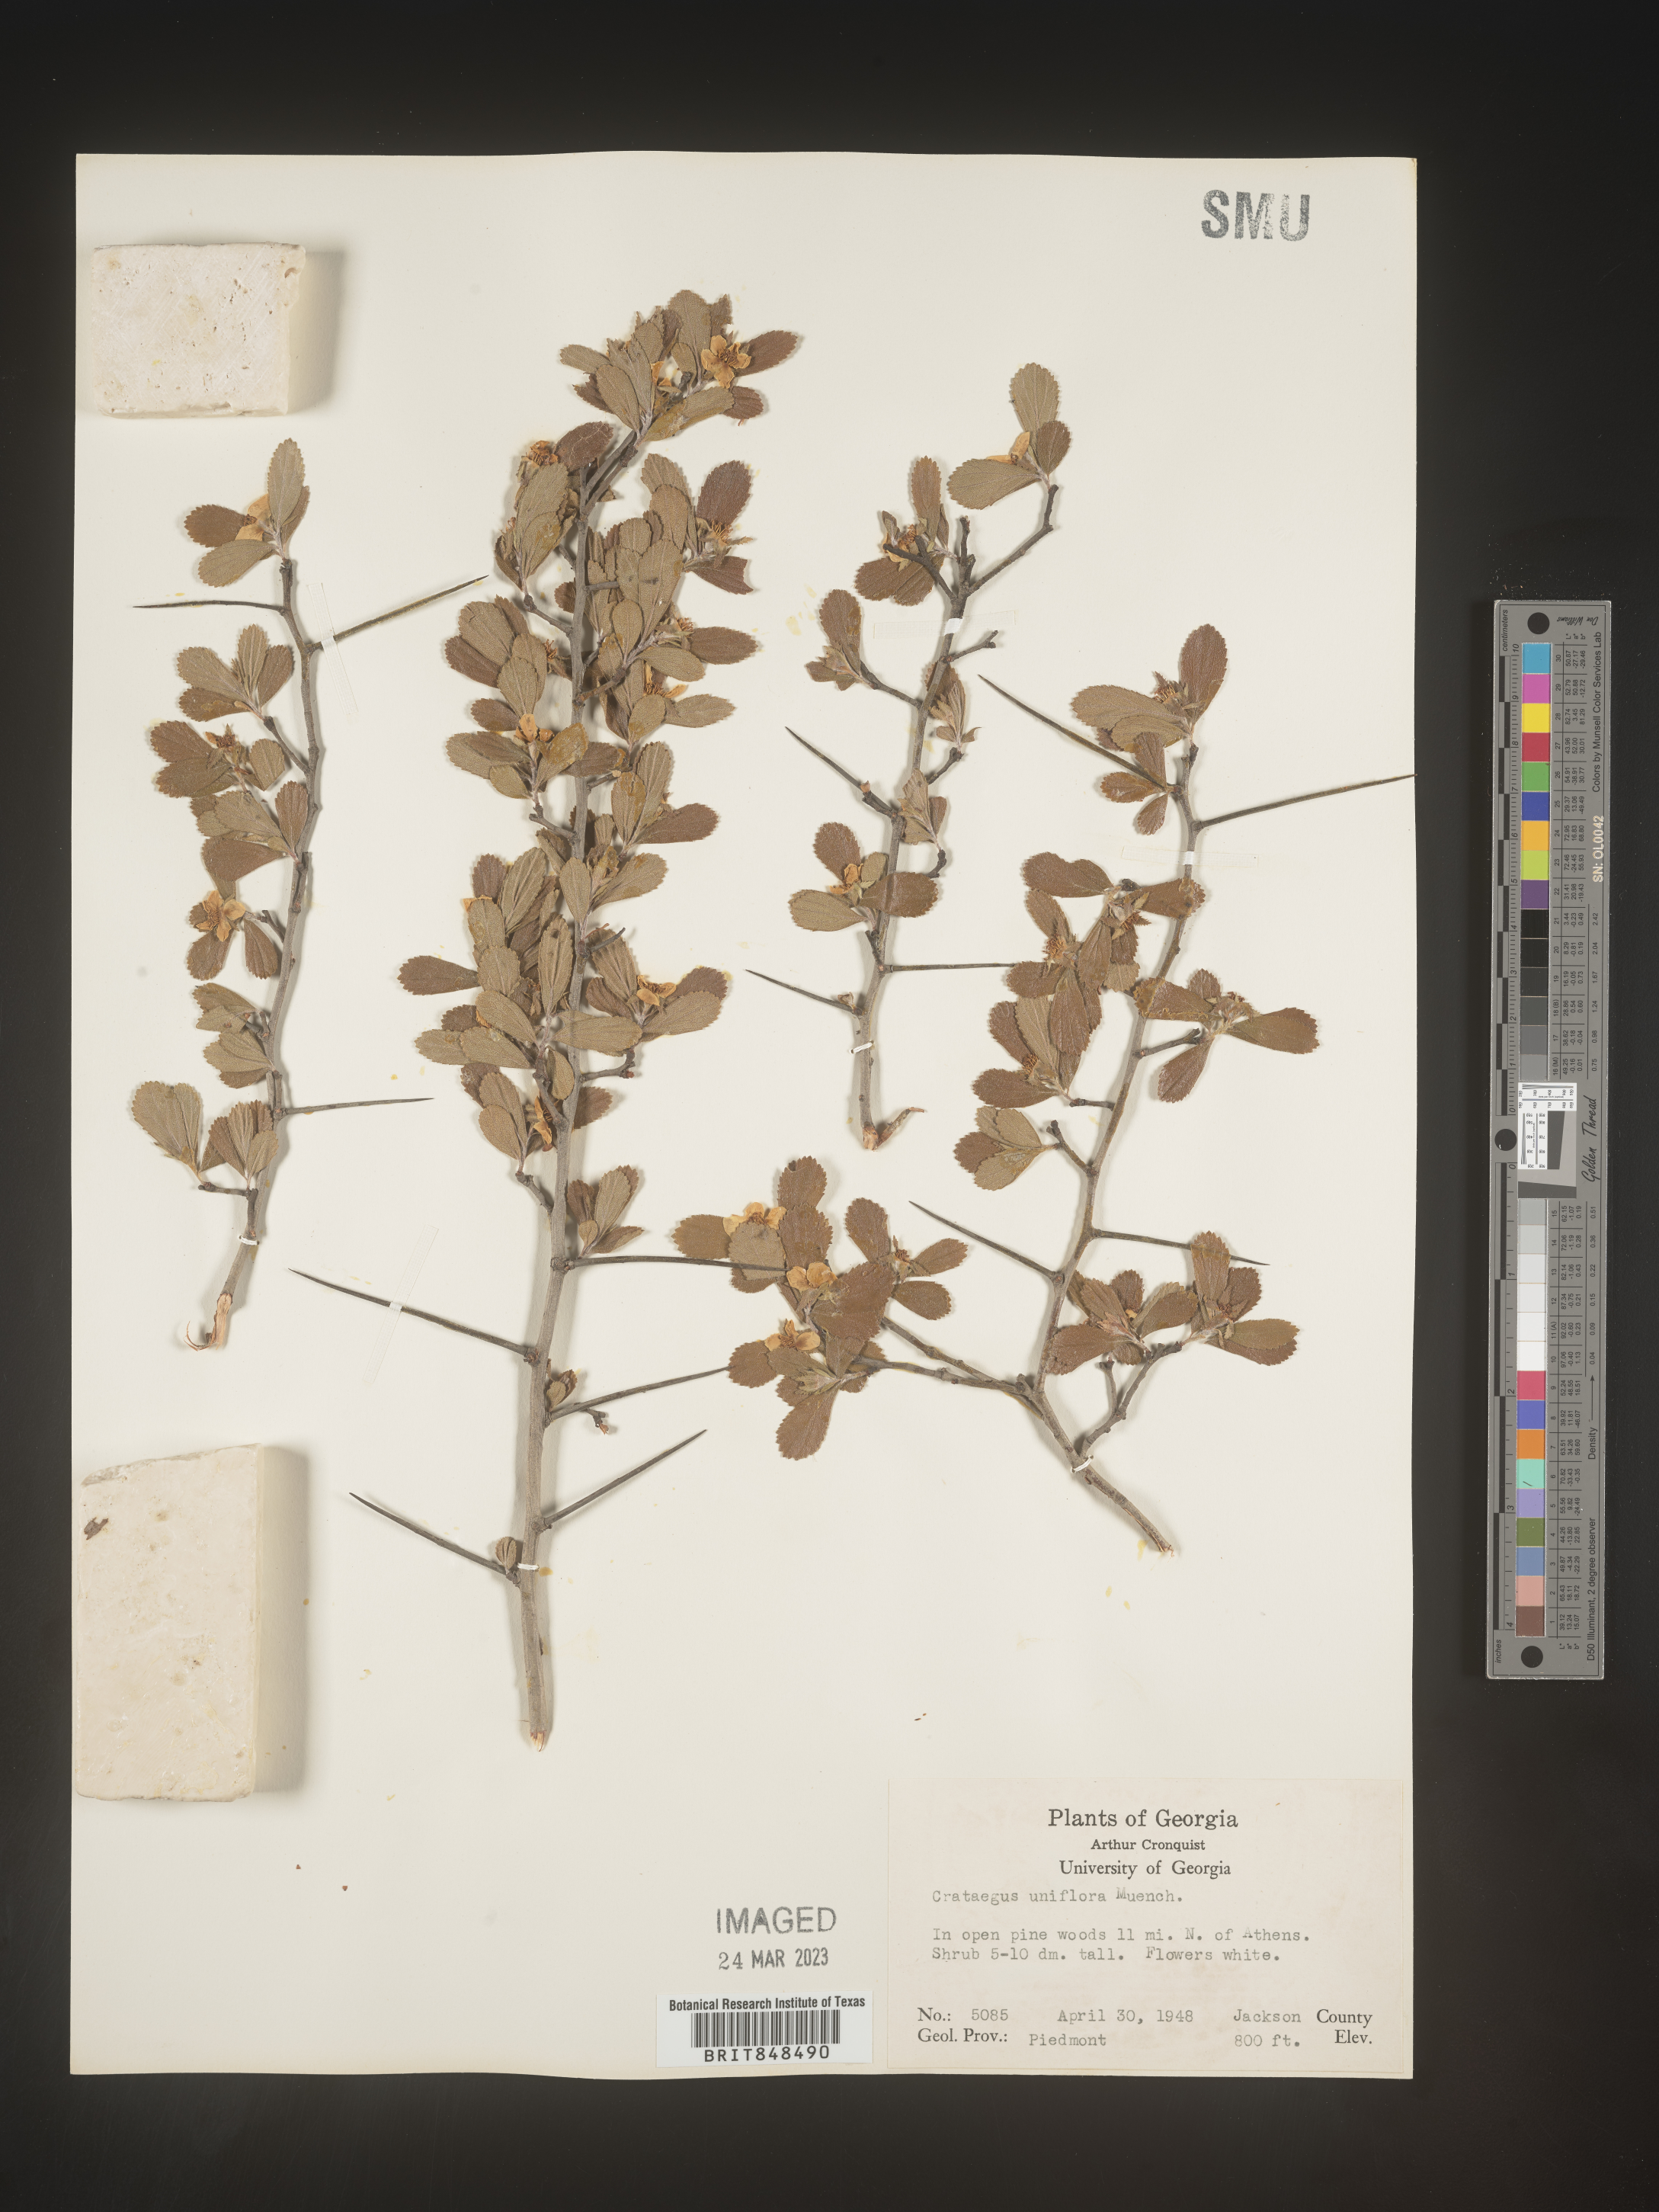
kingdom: Plantae
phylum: Tracheophyta
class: Magnoliopsida
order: Rosales
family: Rosaceae
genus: Crataegus
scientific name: Crataegus uniflora
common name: One-flower hawthorn
